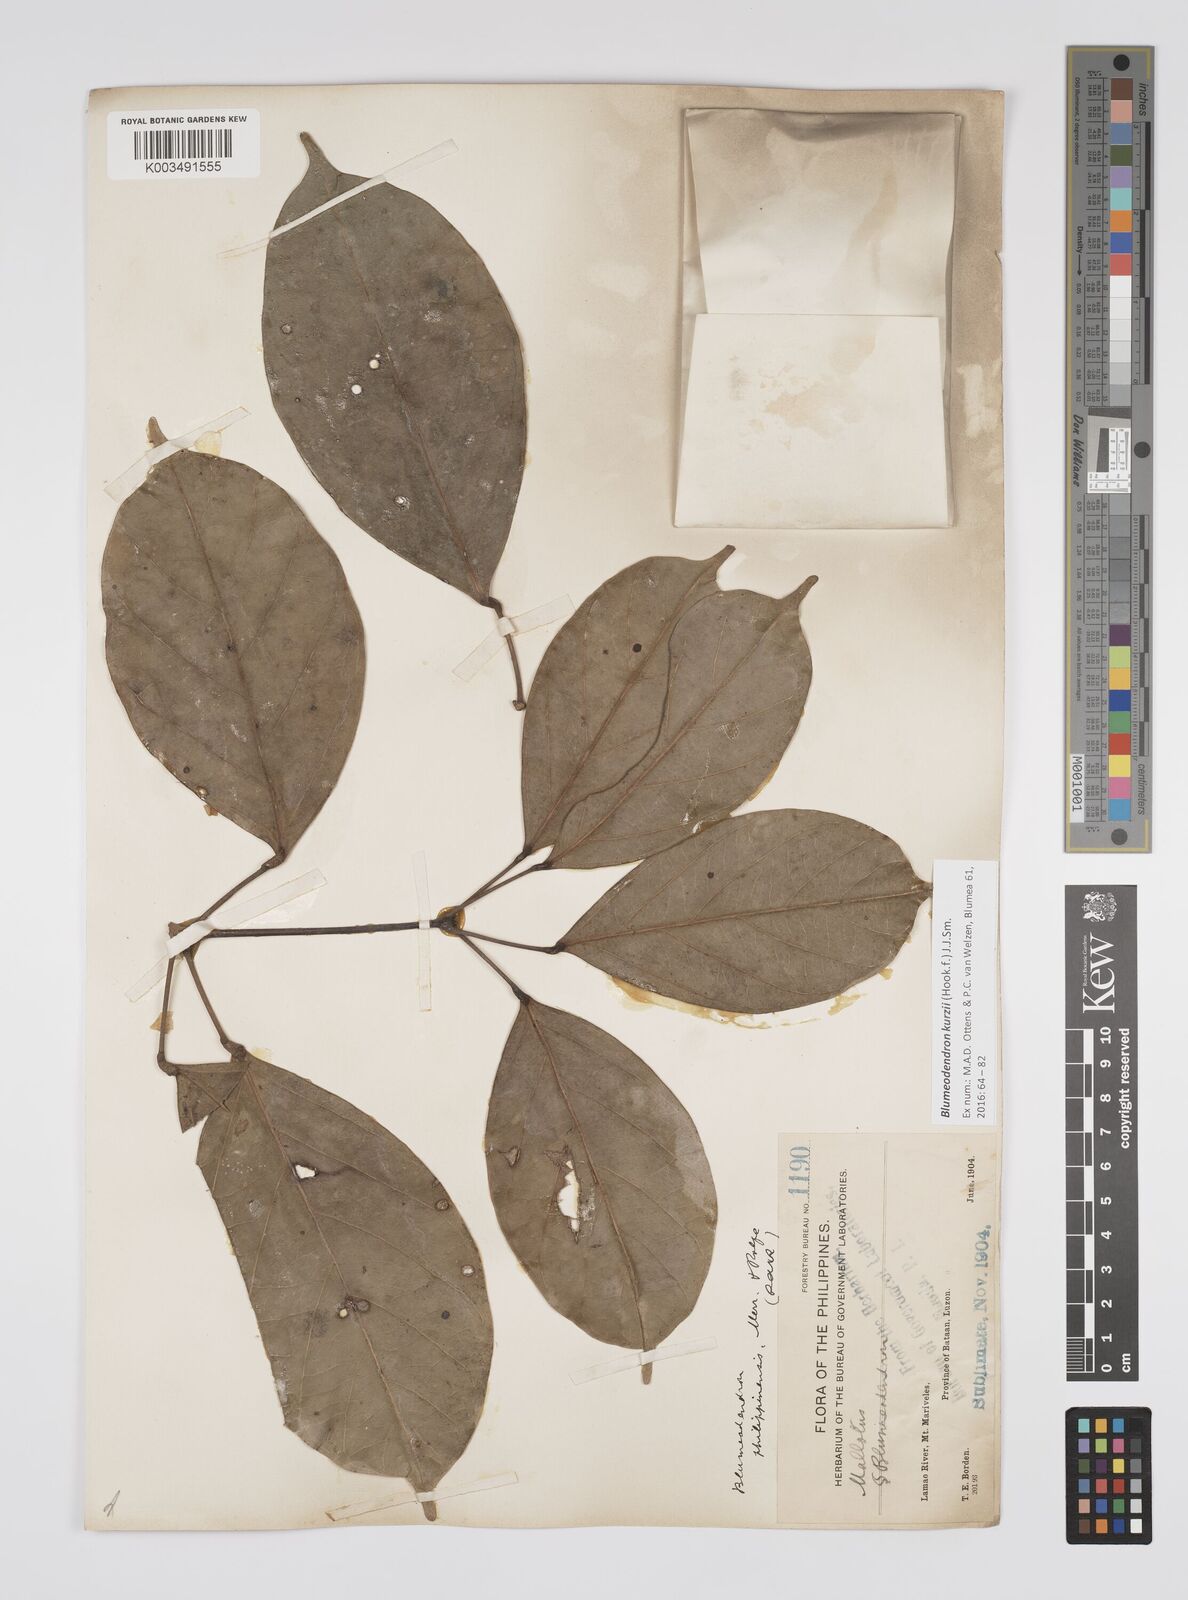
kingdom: Plantae
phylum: Tracheophyta
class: Magnoliopsida
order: Malpighiales
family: Euphorbiaceae
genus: Blumeodendron
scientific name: Blumeodendron kurzii
